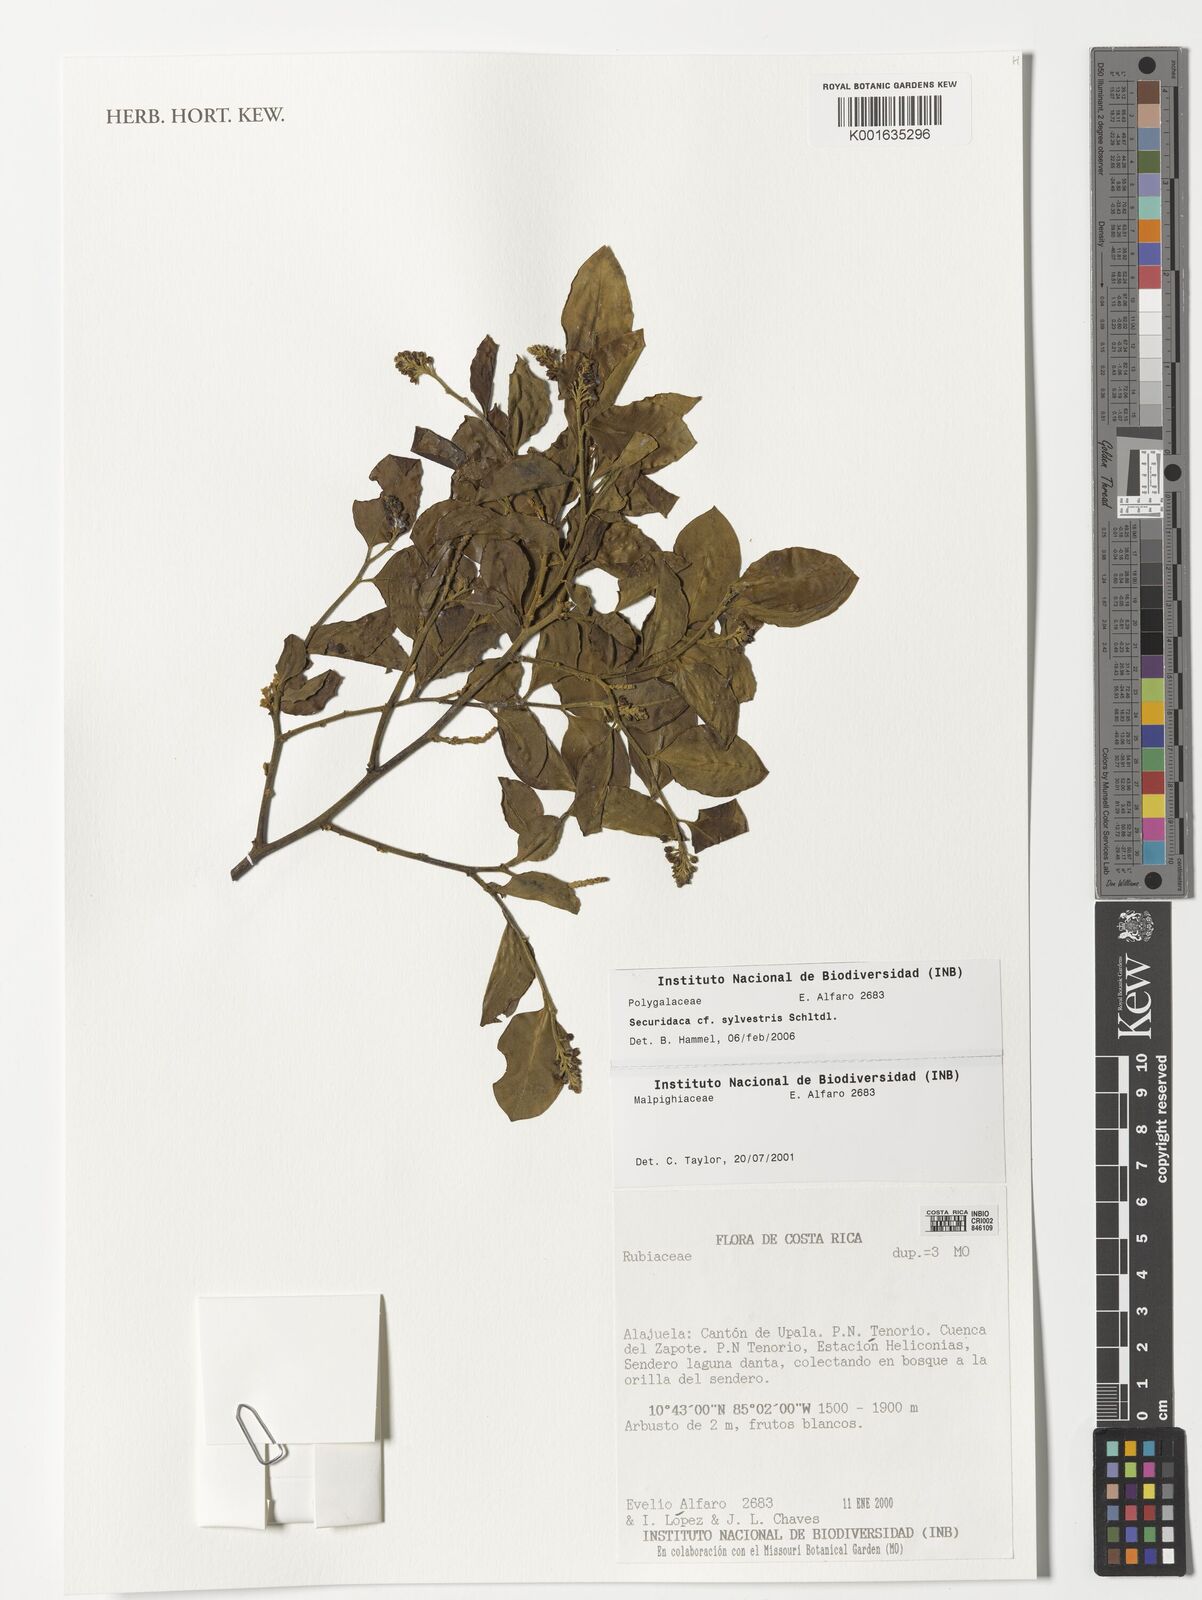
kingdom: Plantae
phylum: Tracheophyta
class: Magnoliopsida
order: Fabales
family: Polygalaceae
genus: Securidaca
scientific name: Securidaca sylvestris
